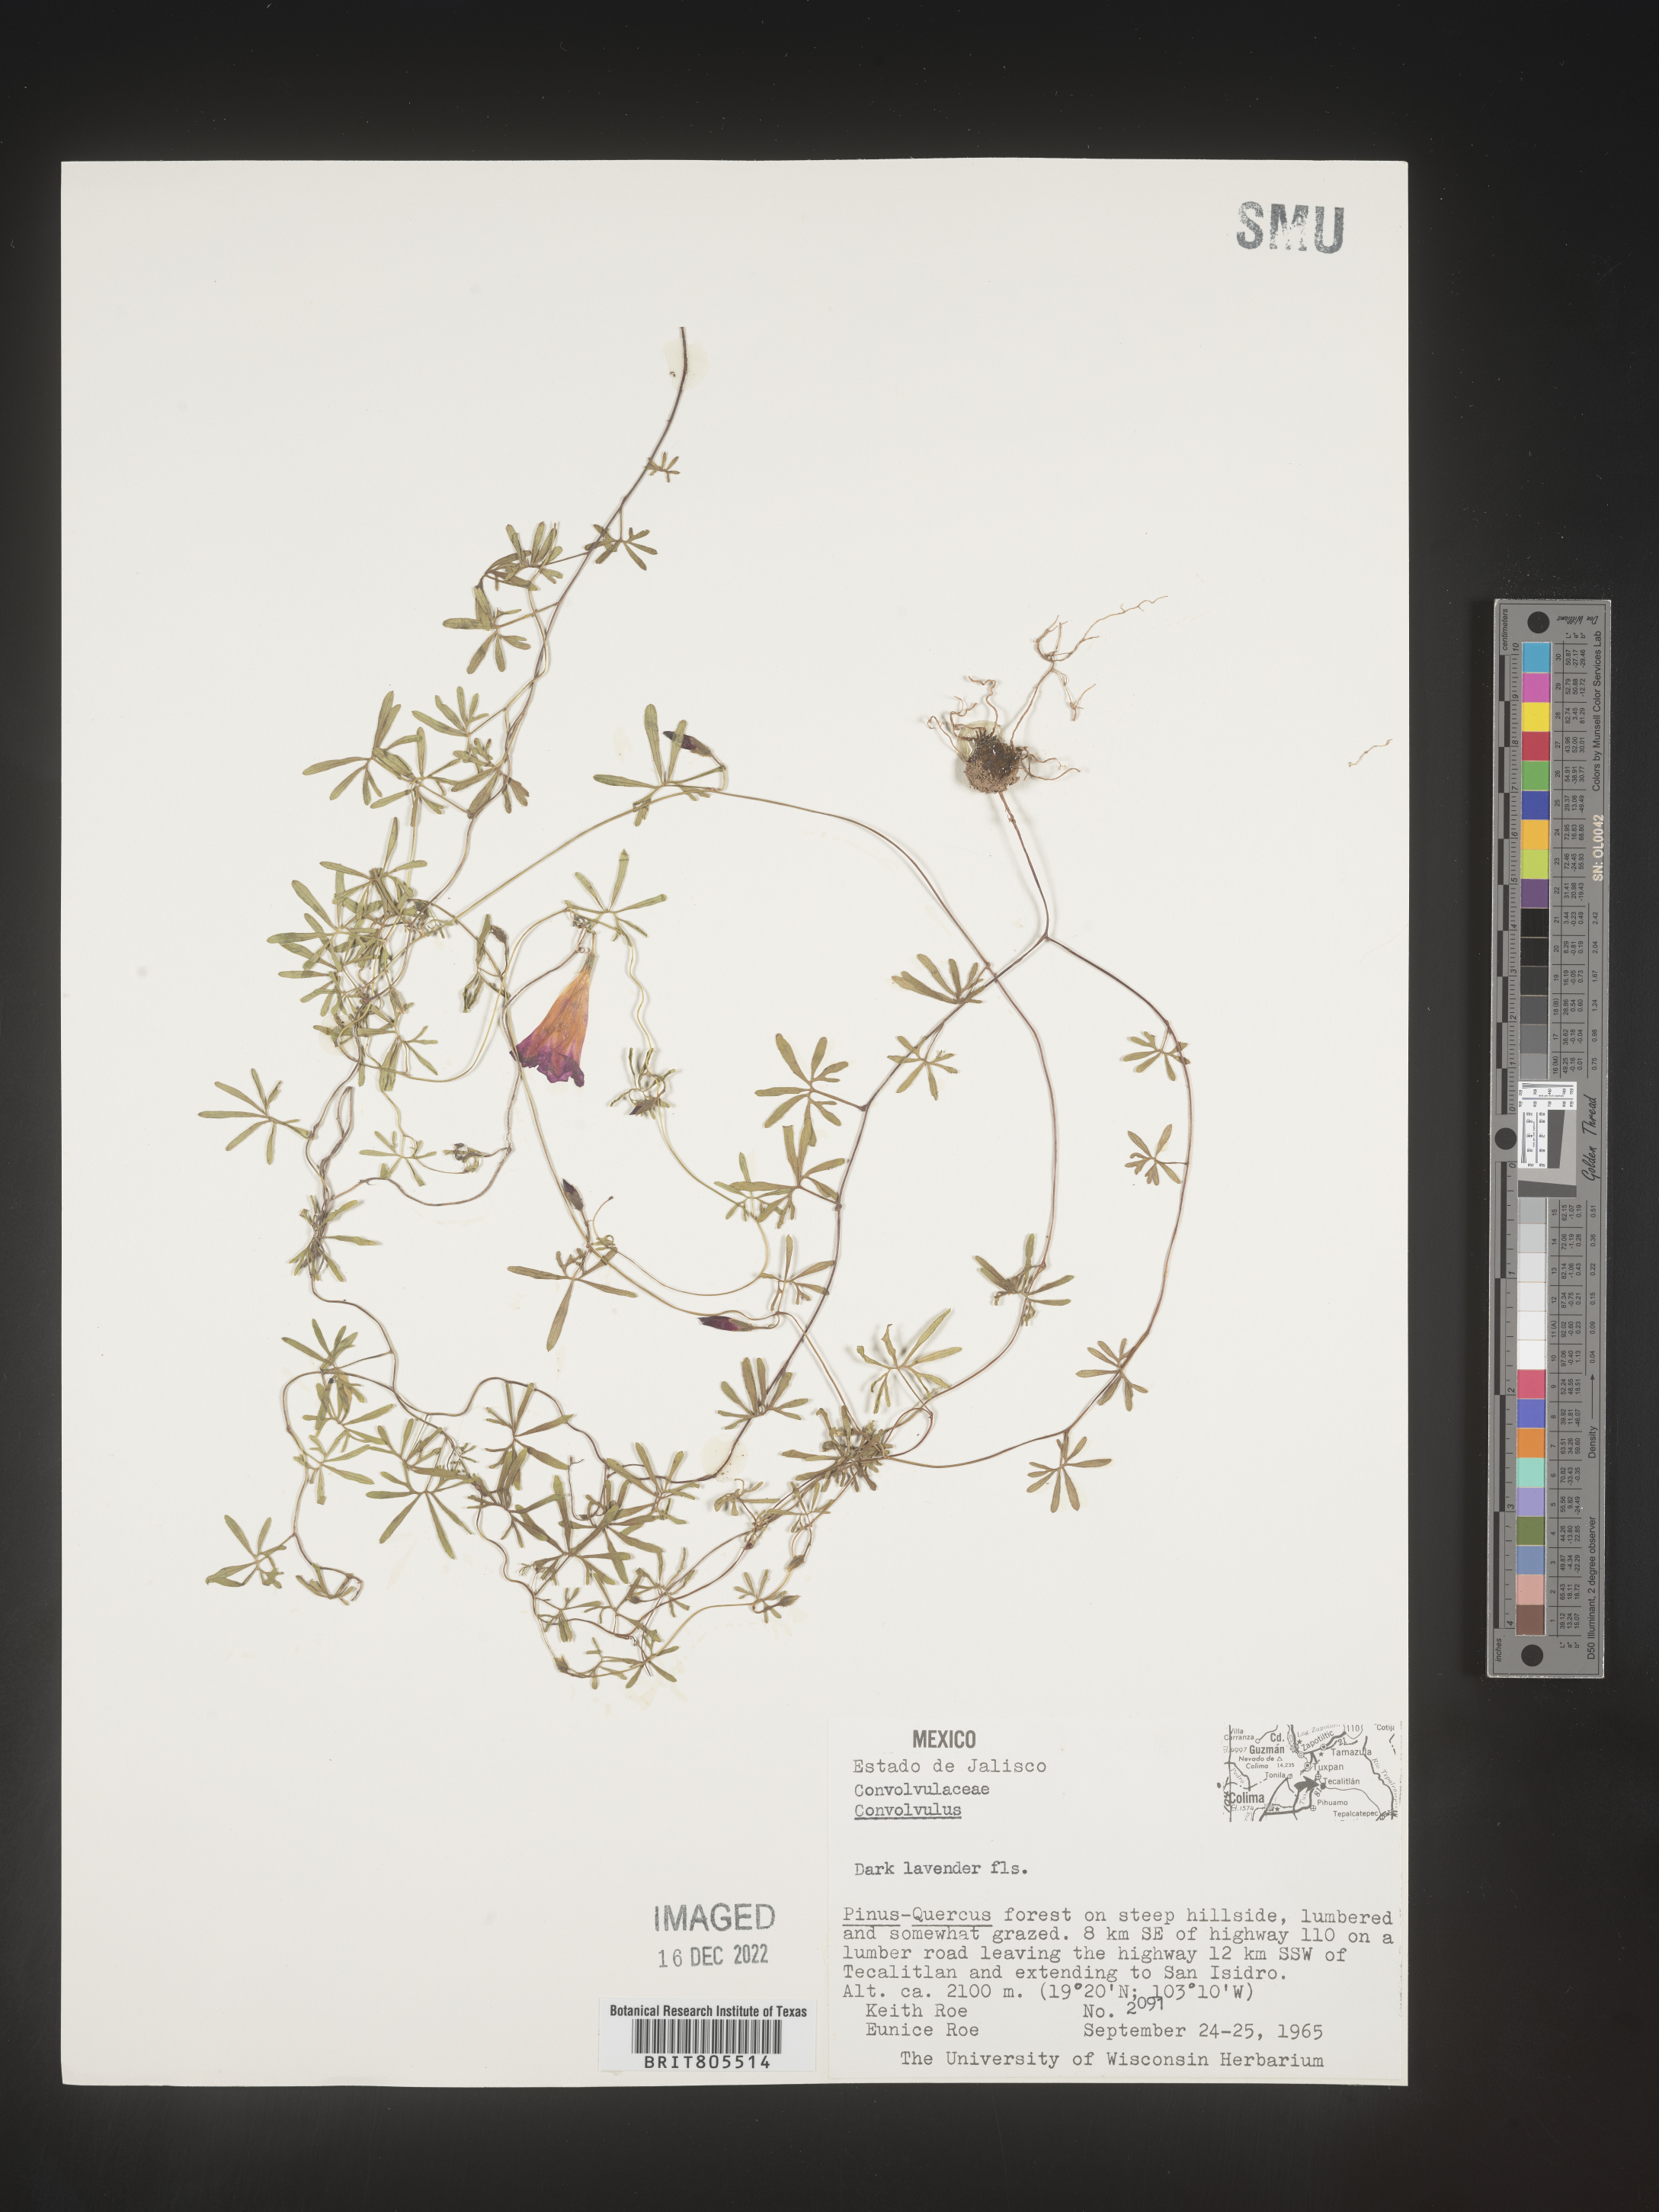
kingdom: Plantae
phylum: Tracheophyta
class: Magnoliopsida
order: Solanales
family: Convolvulaceae
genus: Ipomoea
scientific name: Ipomoea
